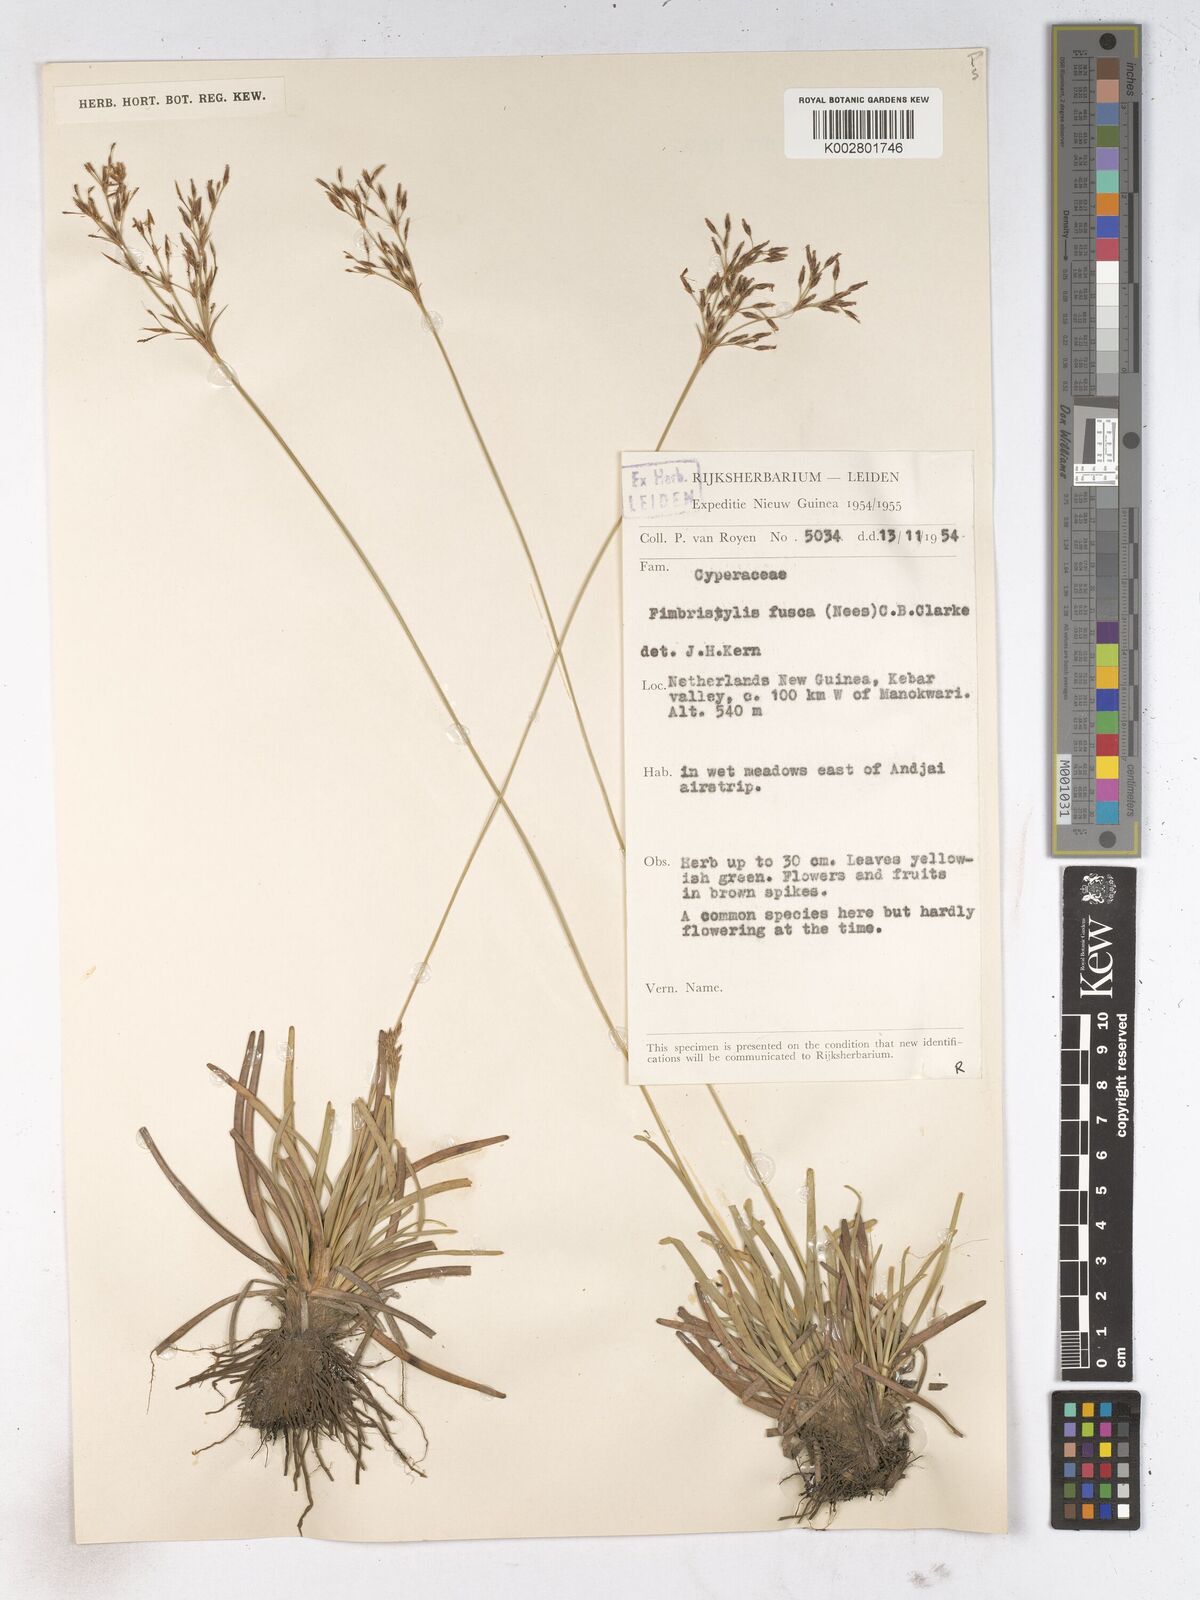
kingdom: Plantae
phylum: Tracheophyta
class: Liliopsida
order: Poales
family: Cyperaceae
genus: Fimbristylis
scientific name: Fimbristylis fusca
